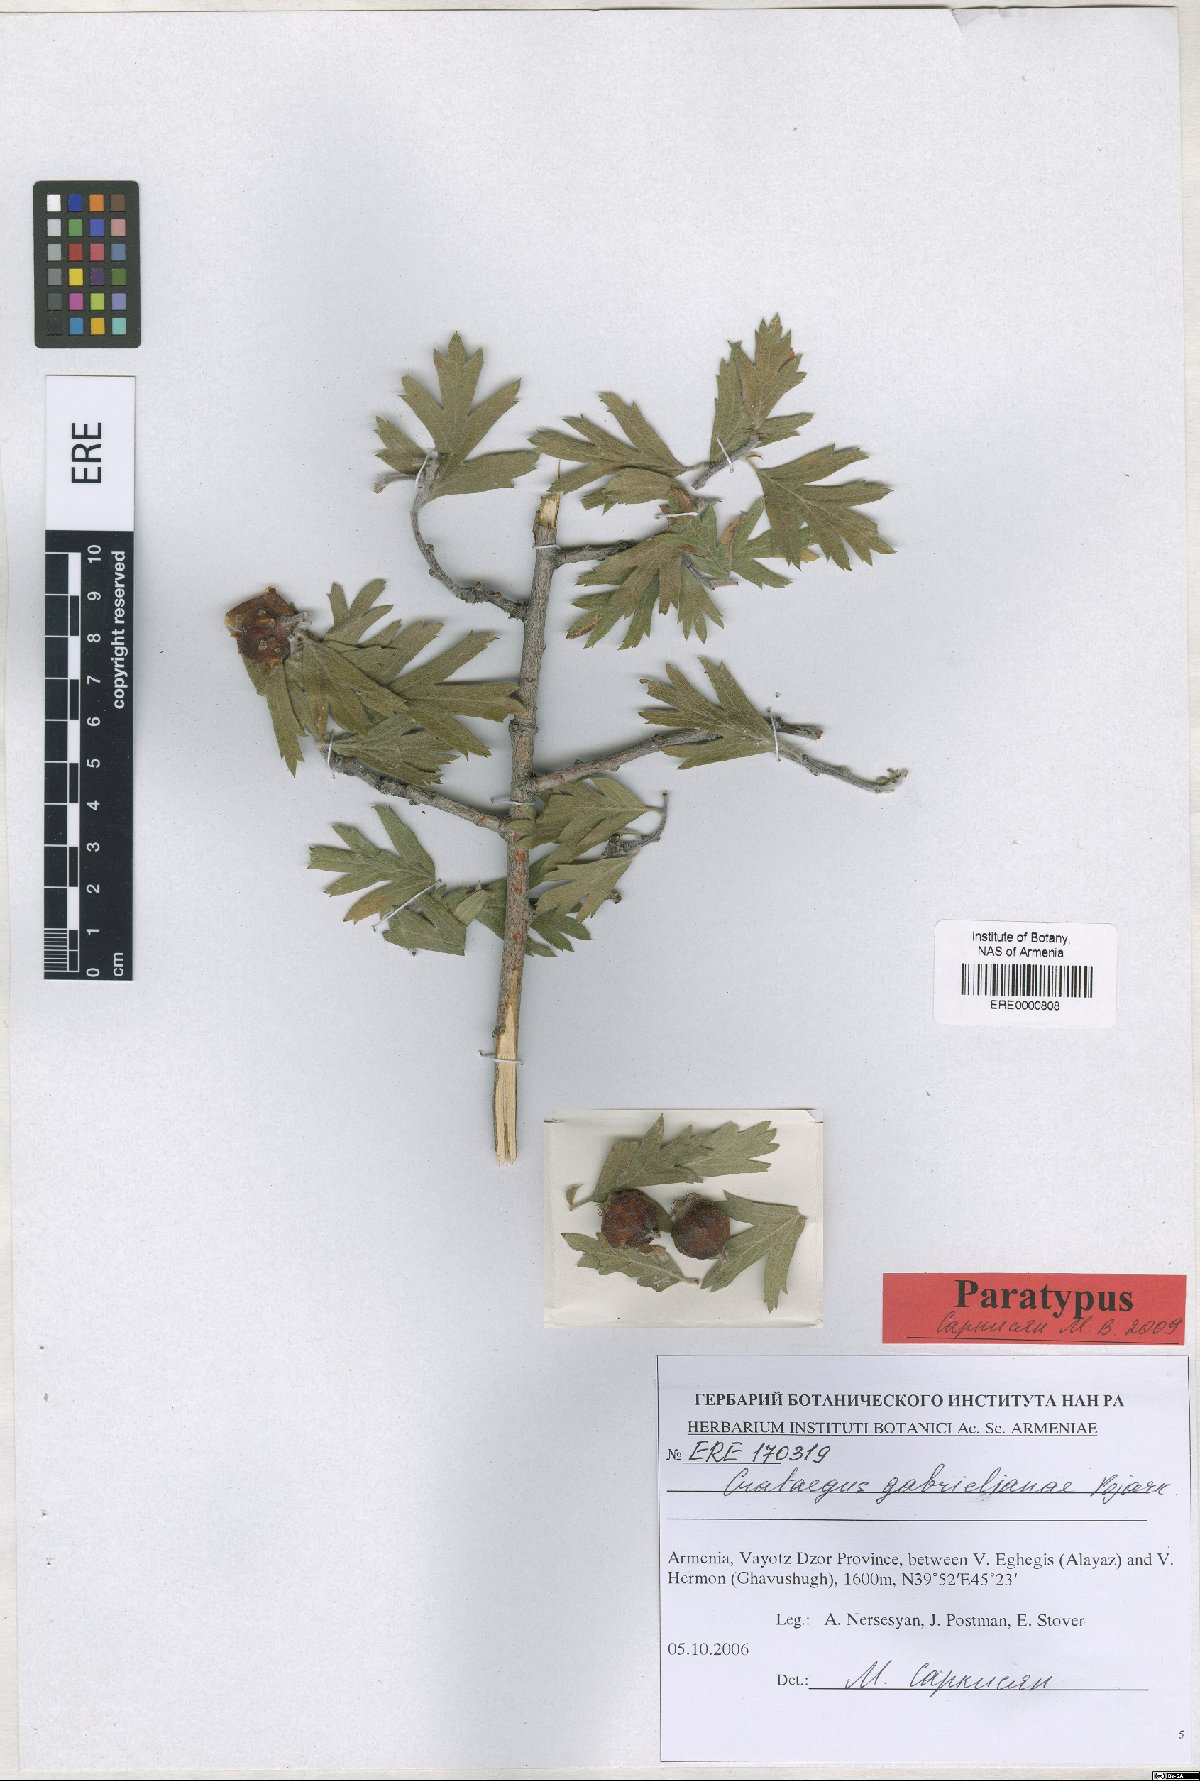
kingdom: Plantae
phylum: Tracheophyta
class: Magnoliopsida
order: Rosales
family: Rosaceae
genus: Crataegus
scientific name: Crataegus
